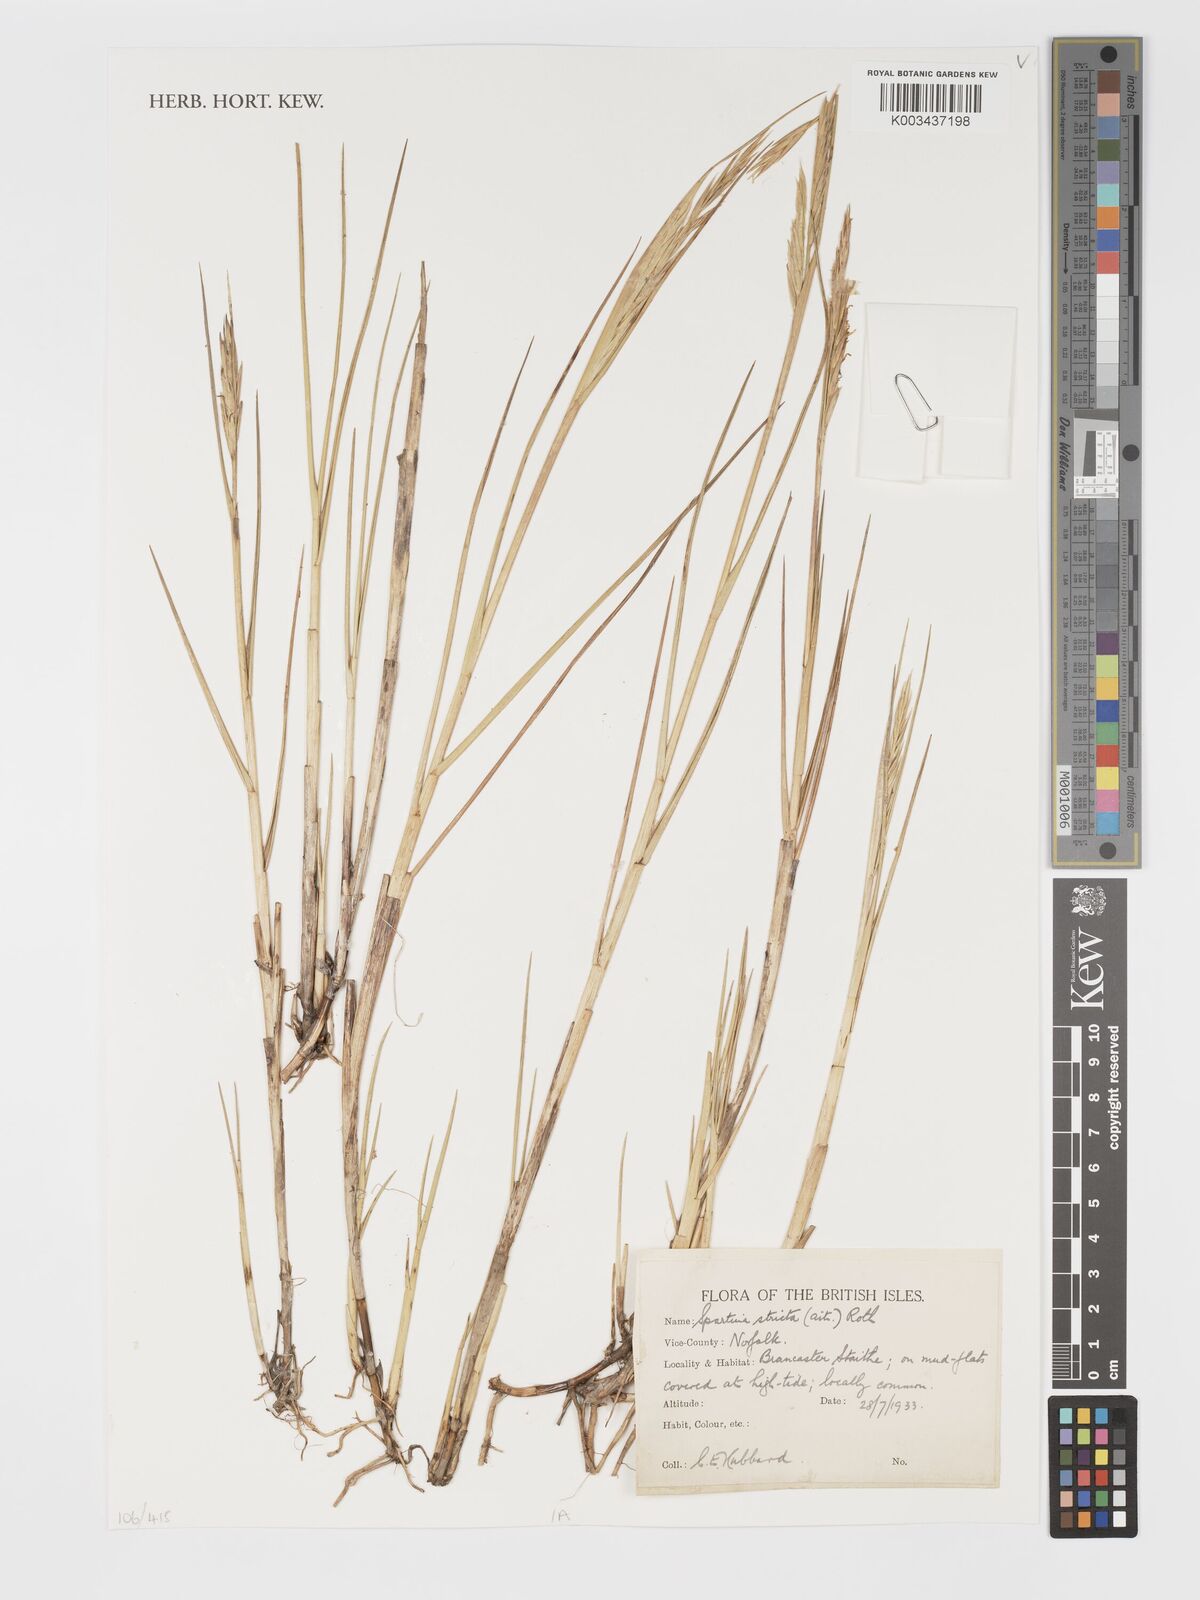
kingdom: Plantae
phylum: Tracheophyta
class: Liliopsida
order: Poales
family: Poaceae
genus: Sporobolus
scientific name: Sporobolus maritimus
